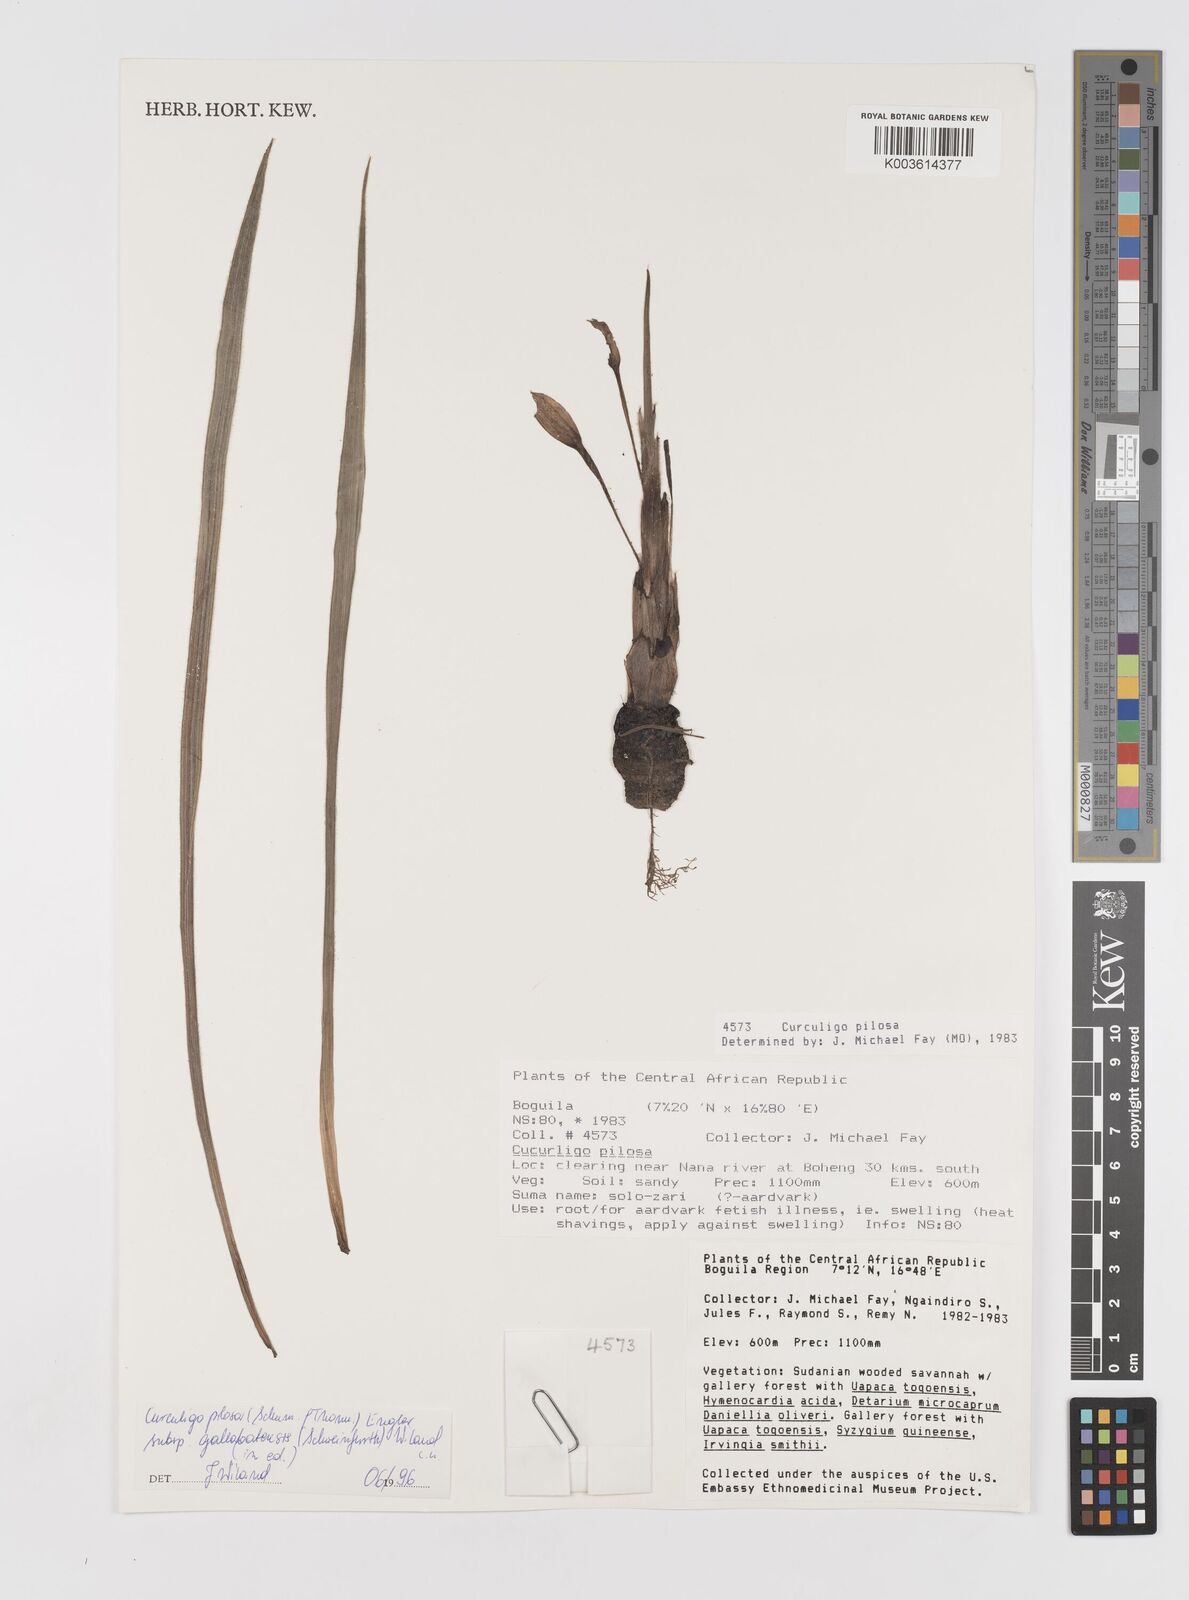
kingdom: Plantae
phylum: Tracheophyta
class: Liliopsida
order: Asparagales
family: Hypoxidaceae
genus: Curculigo
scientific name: Curculigo pilosa
